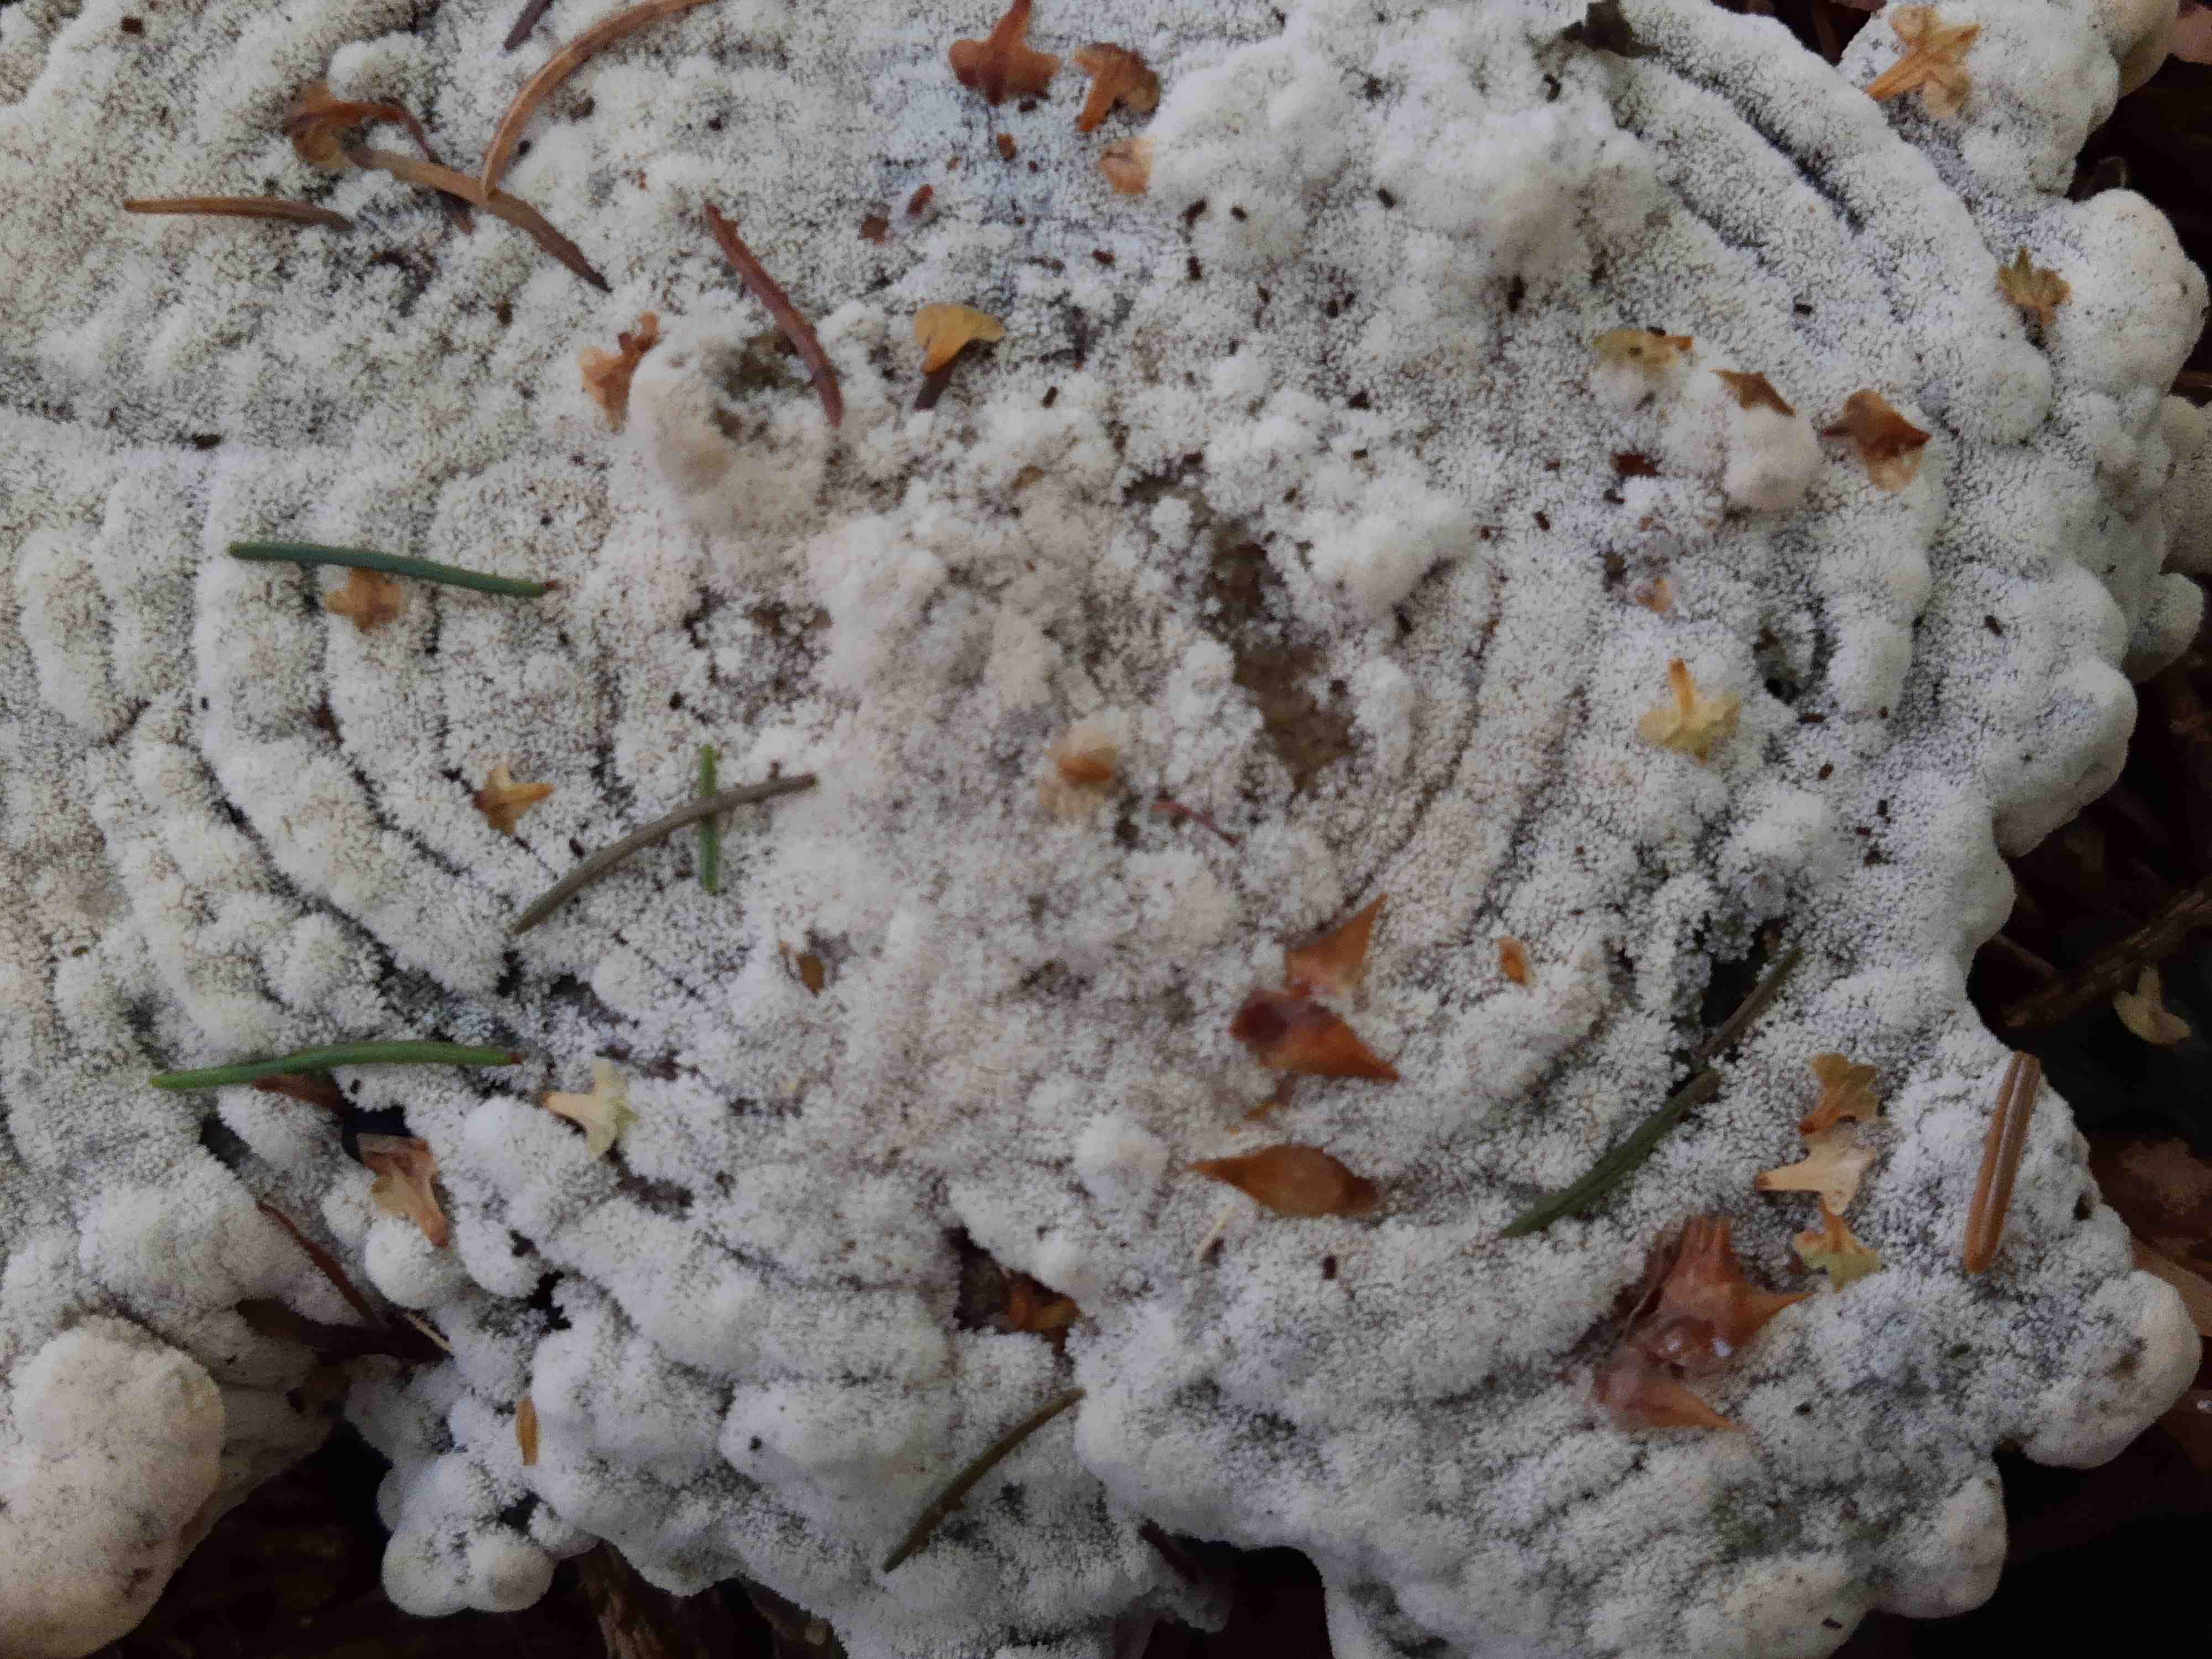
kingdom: Fungi
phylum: Basidiomycota
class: Agaricomycetes
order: Hymenochaetales
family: Hyphodontiaceae
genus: Hyphodontia
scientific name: Hyphodontia arguta
